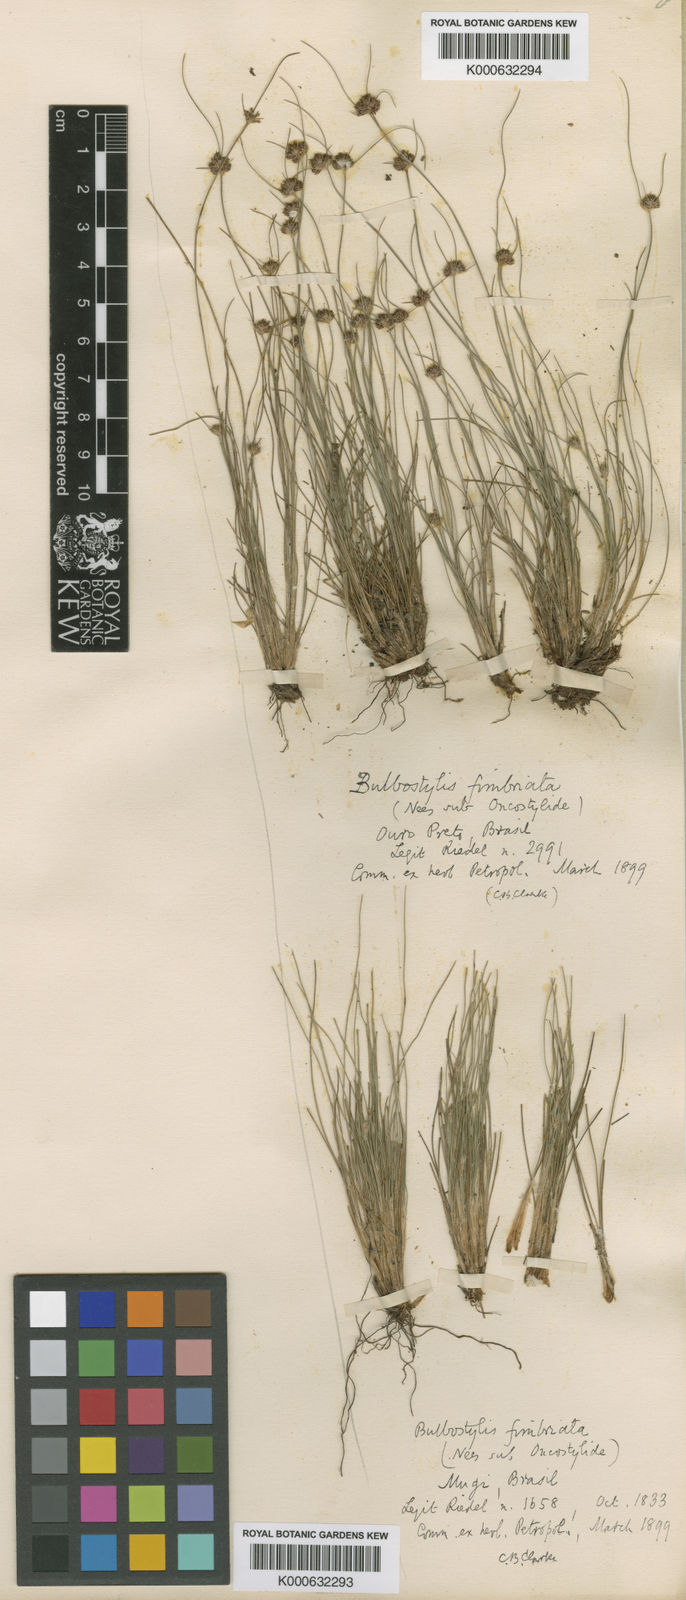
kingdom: Plantae
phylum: Tracheophyta
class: Liliopsida
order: Poales
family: Cyperaceae
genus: Bulbostylis
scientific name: Bulbostylis fimbriata
